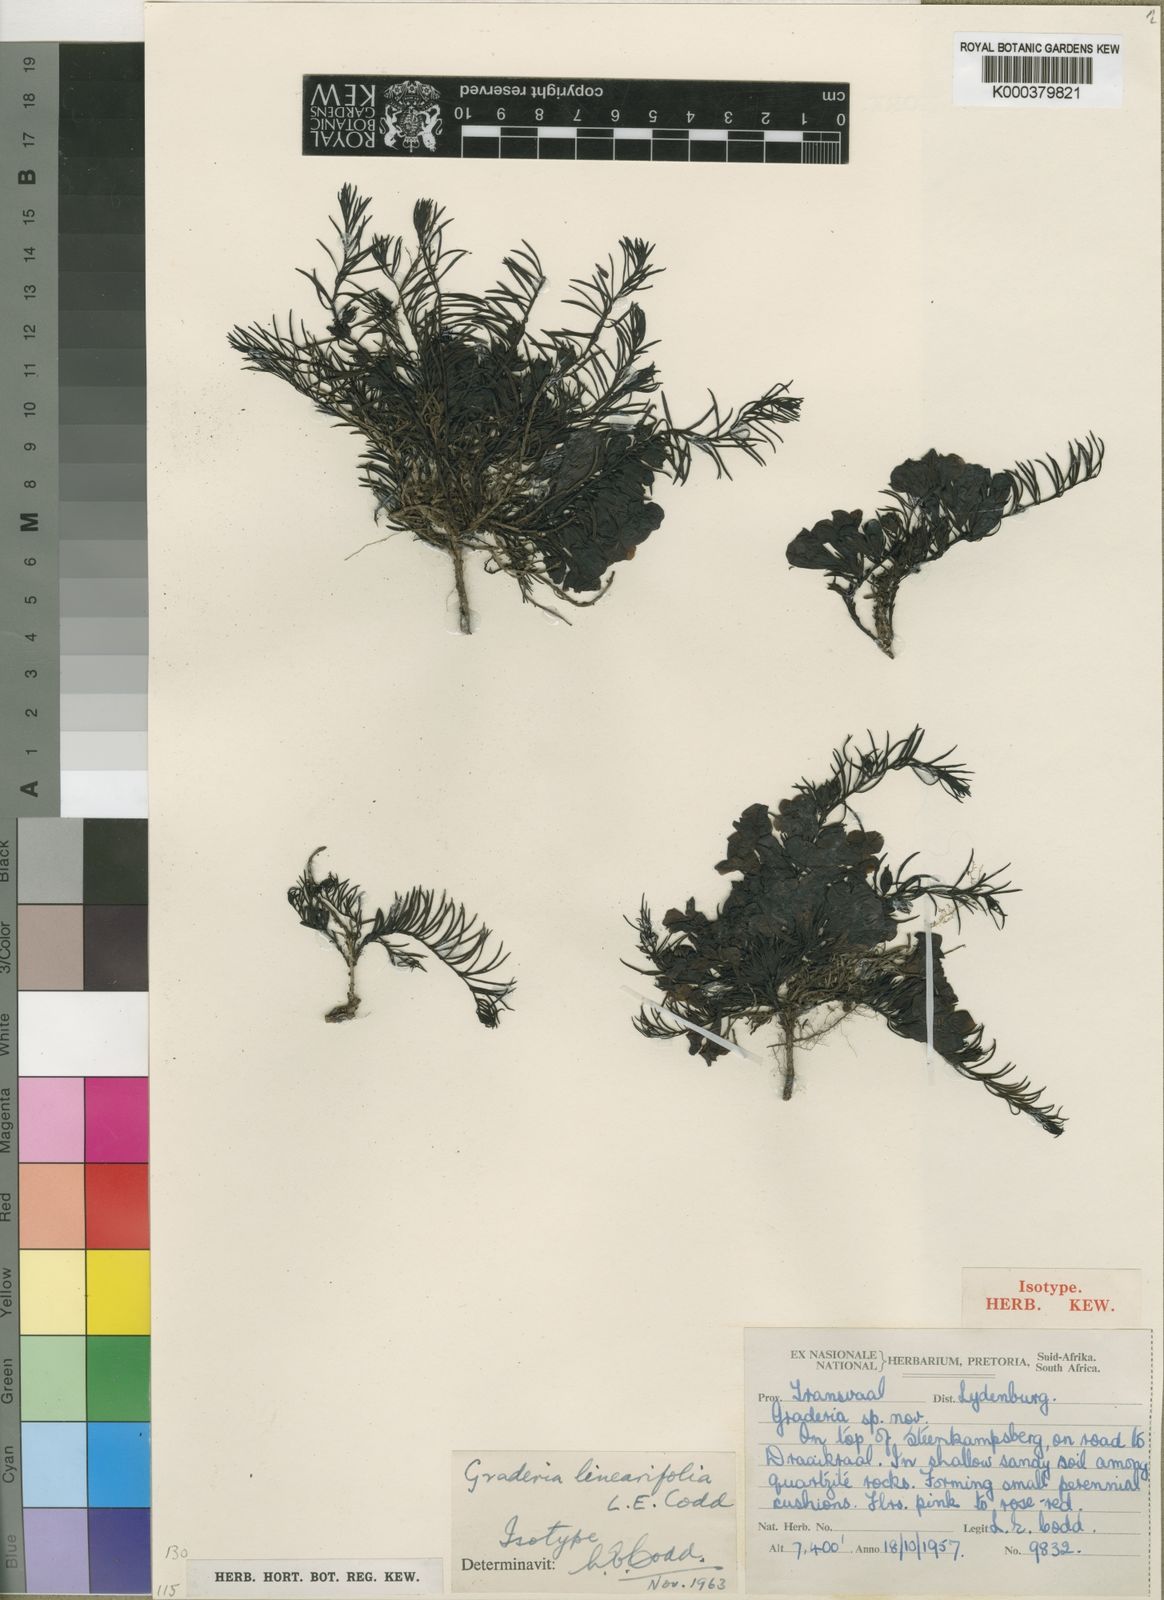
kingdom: Plantae
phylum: Tracheophyta
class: Magnoliopsida
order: Lamiales
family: Orobanchaceae
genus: Graderia
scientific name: Graderia linearifolia
